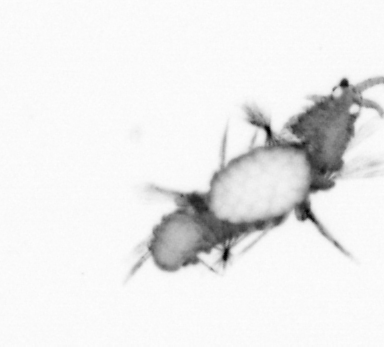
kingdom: Animalia
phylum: Annelida
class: Polychaeta
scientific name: Polychaeta
